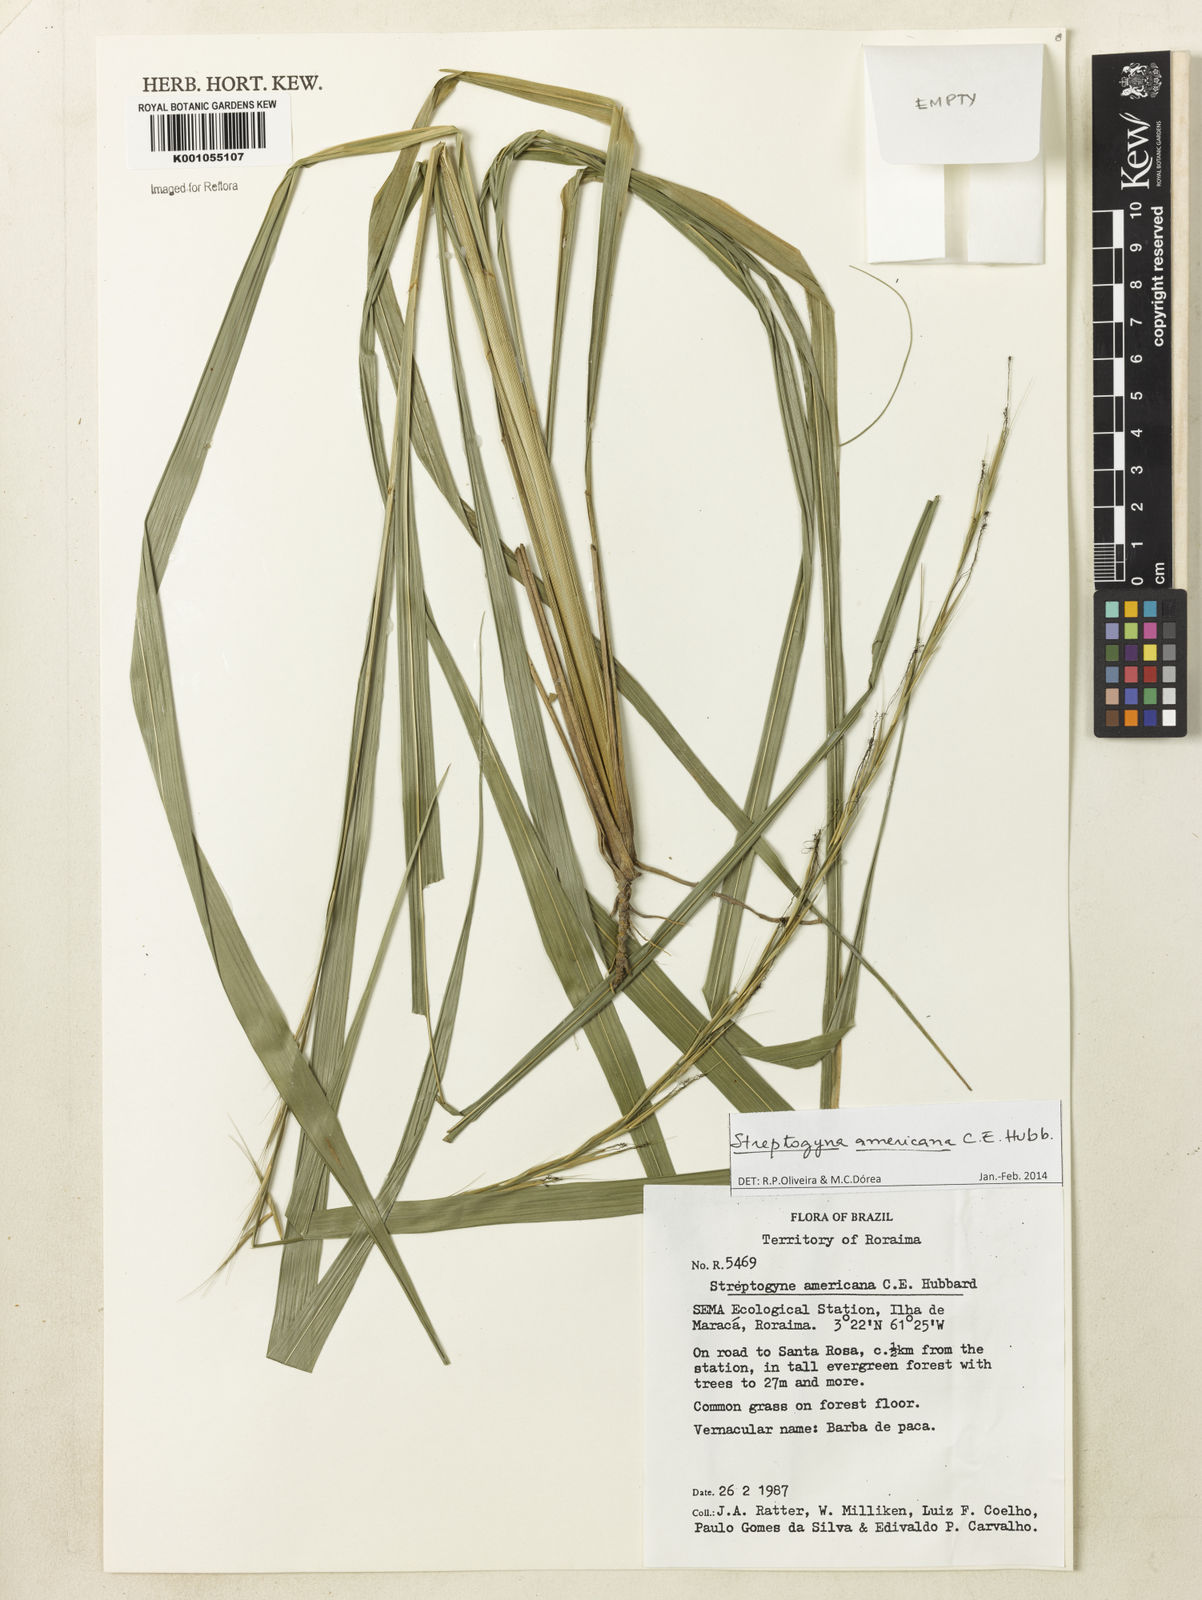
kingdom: Plantae
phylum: Tracheophyta
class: Liliopsida
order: Poales
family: Poaceae
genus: Streptogyna
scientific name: Streptogyna americana
